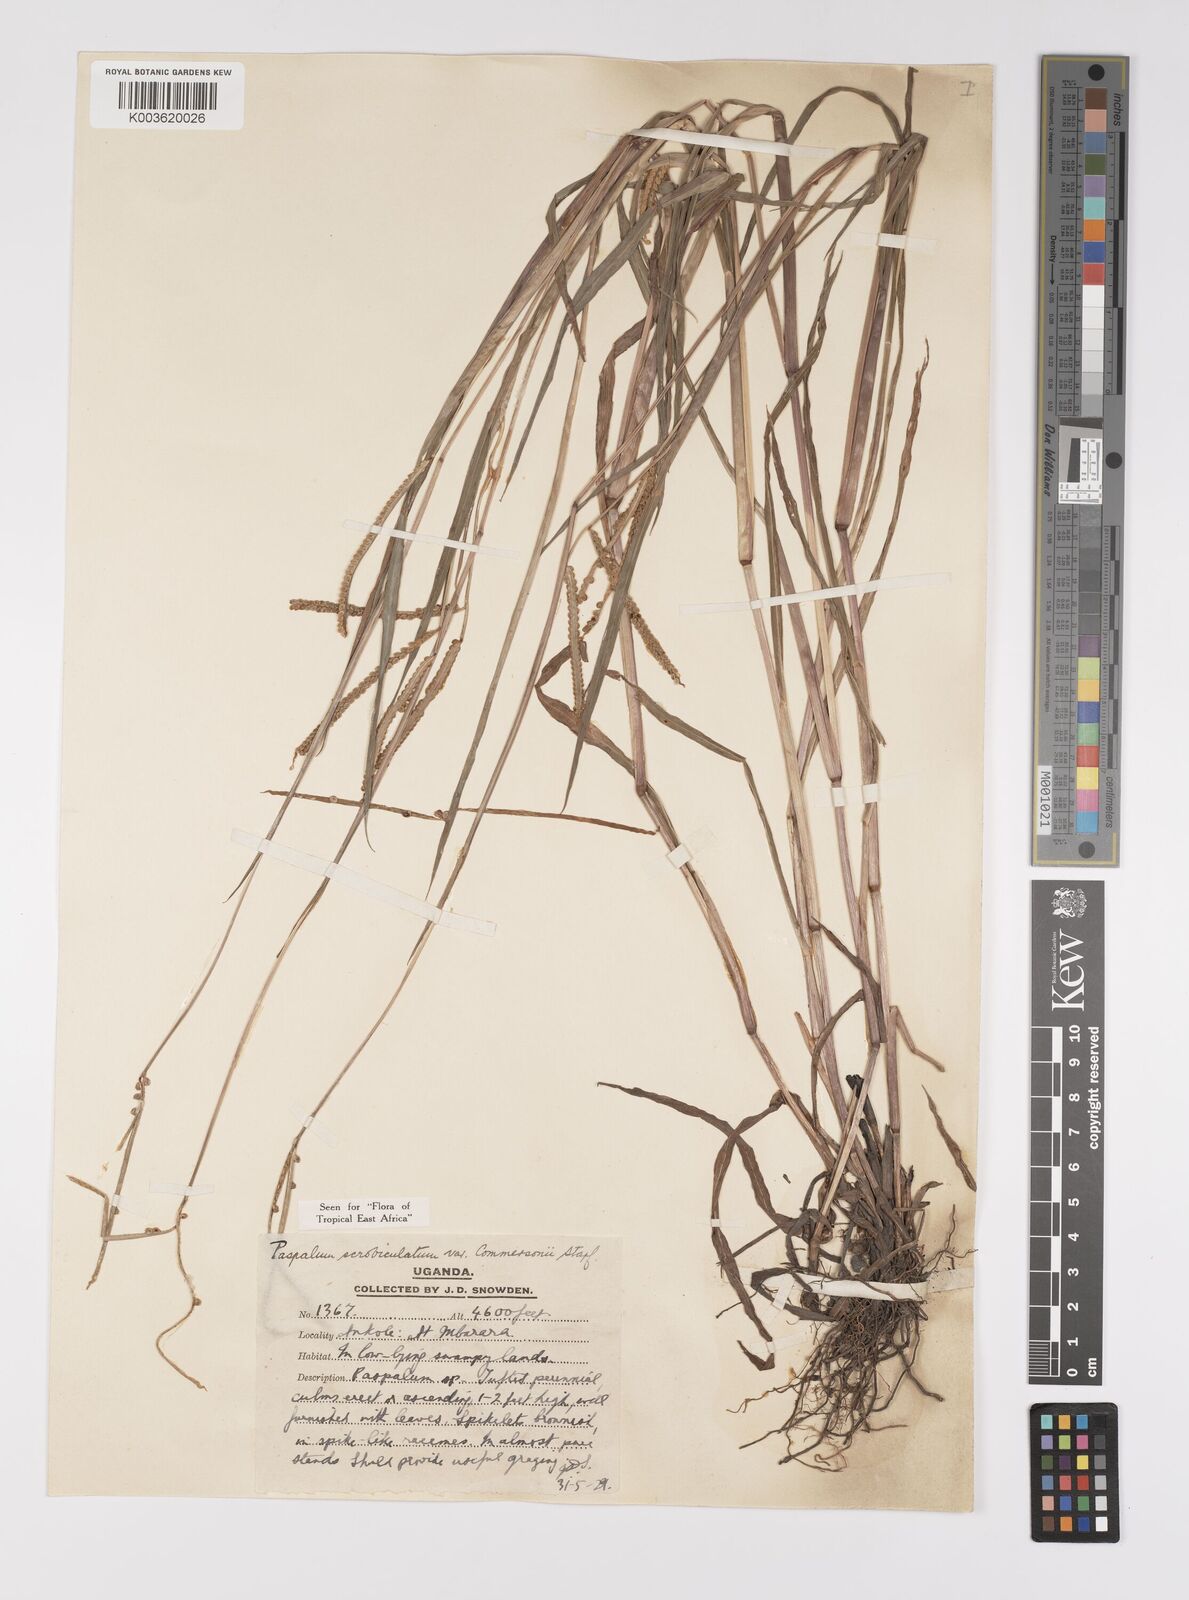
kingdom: Plantae
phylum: Tracheophyta
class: Liliopsida
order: Poales
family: Poaceae
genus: Paspalum
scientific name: Paspalum scrobiculatum
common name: Kodo millet
